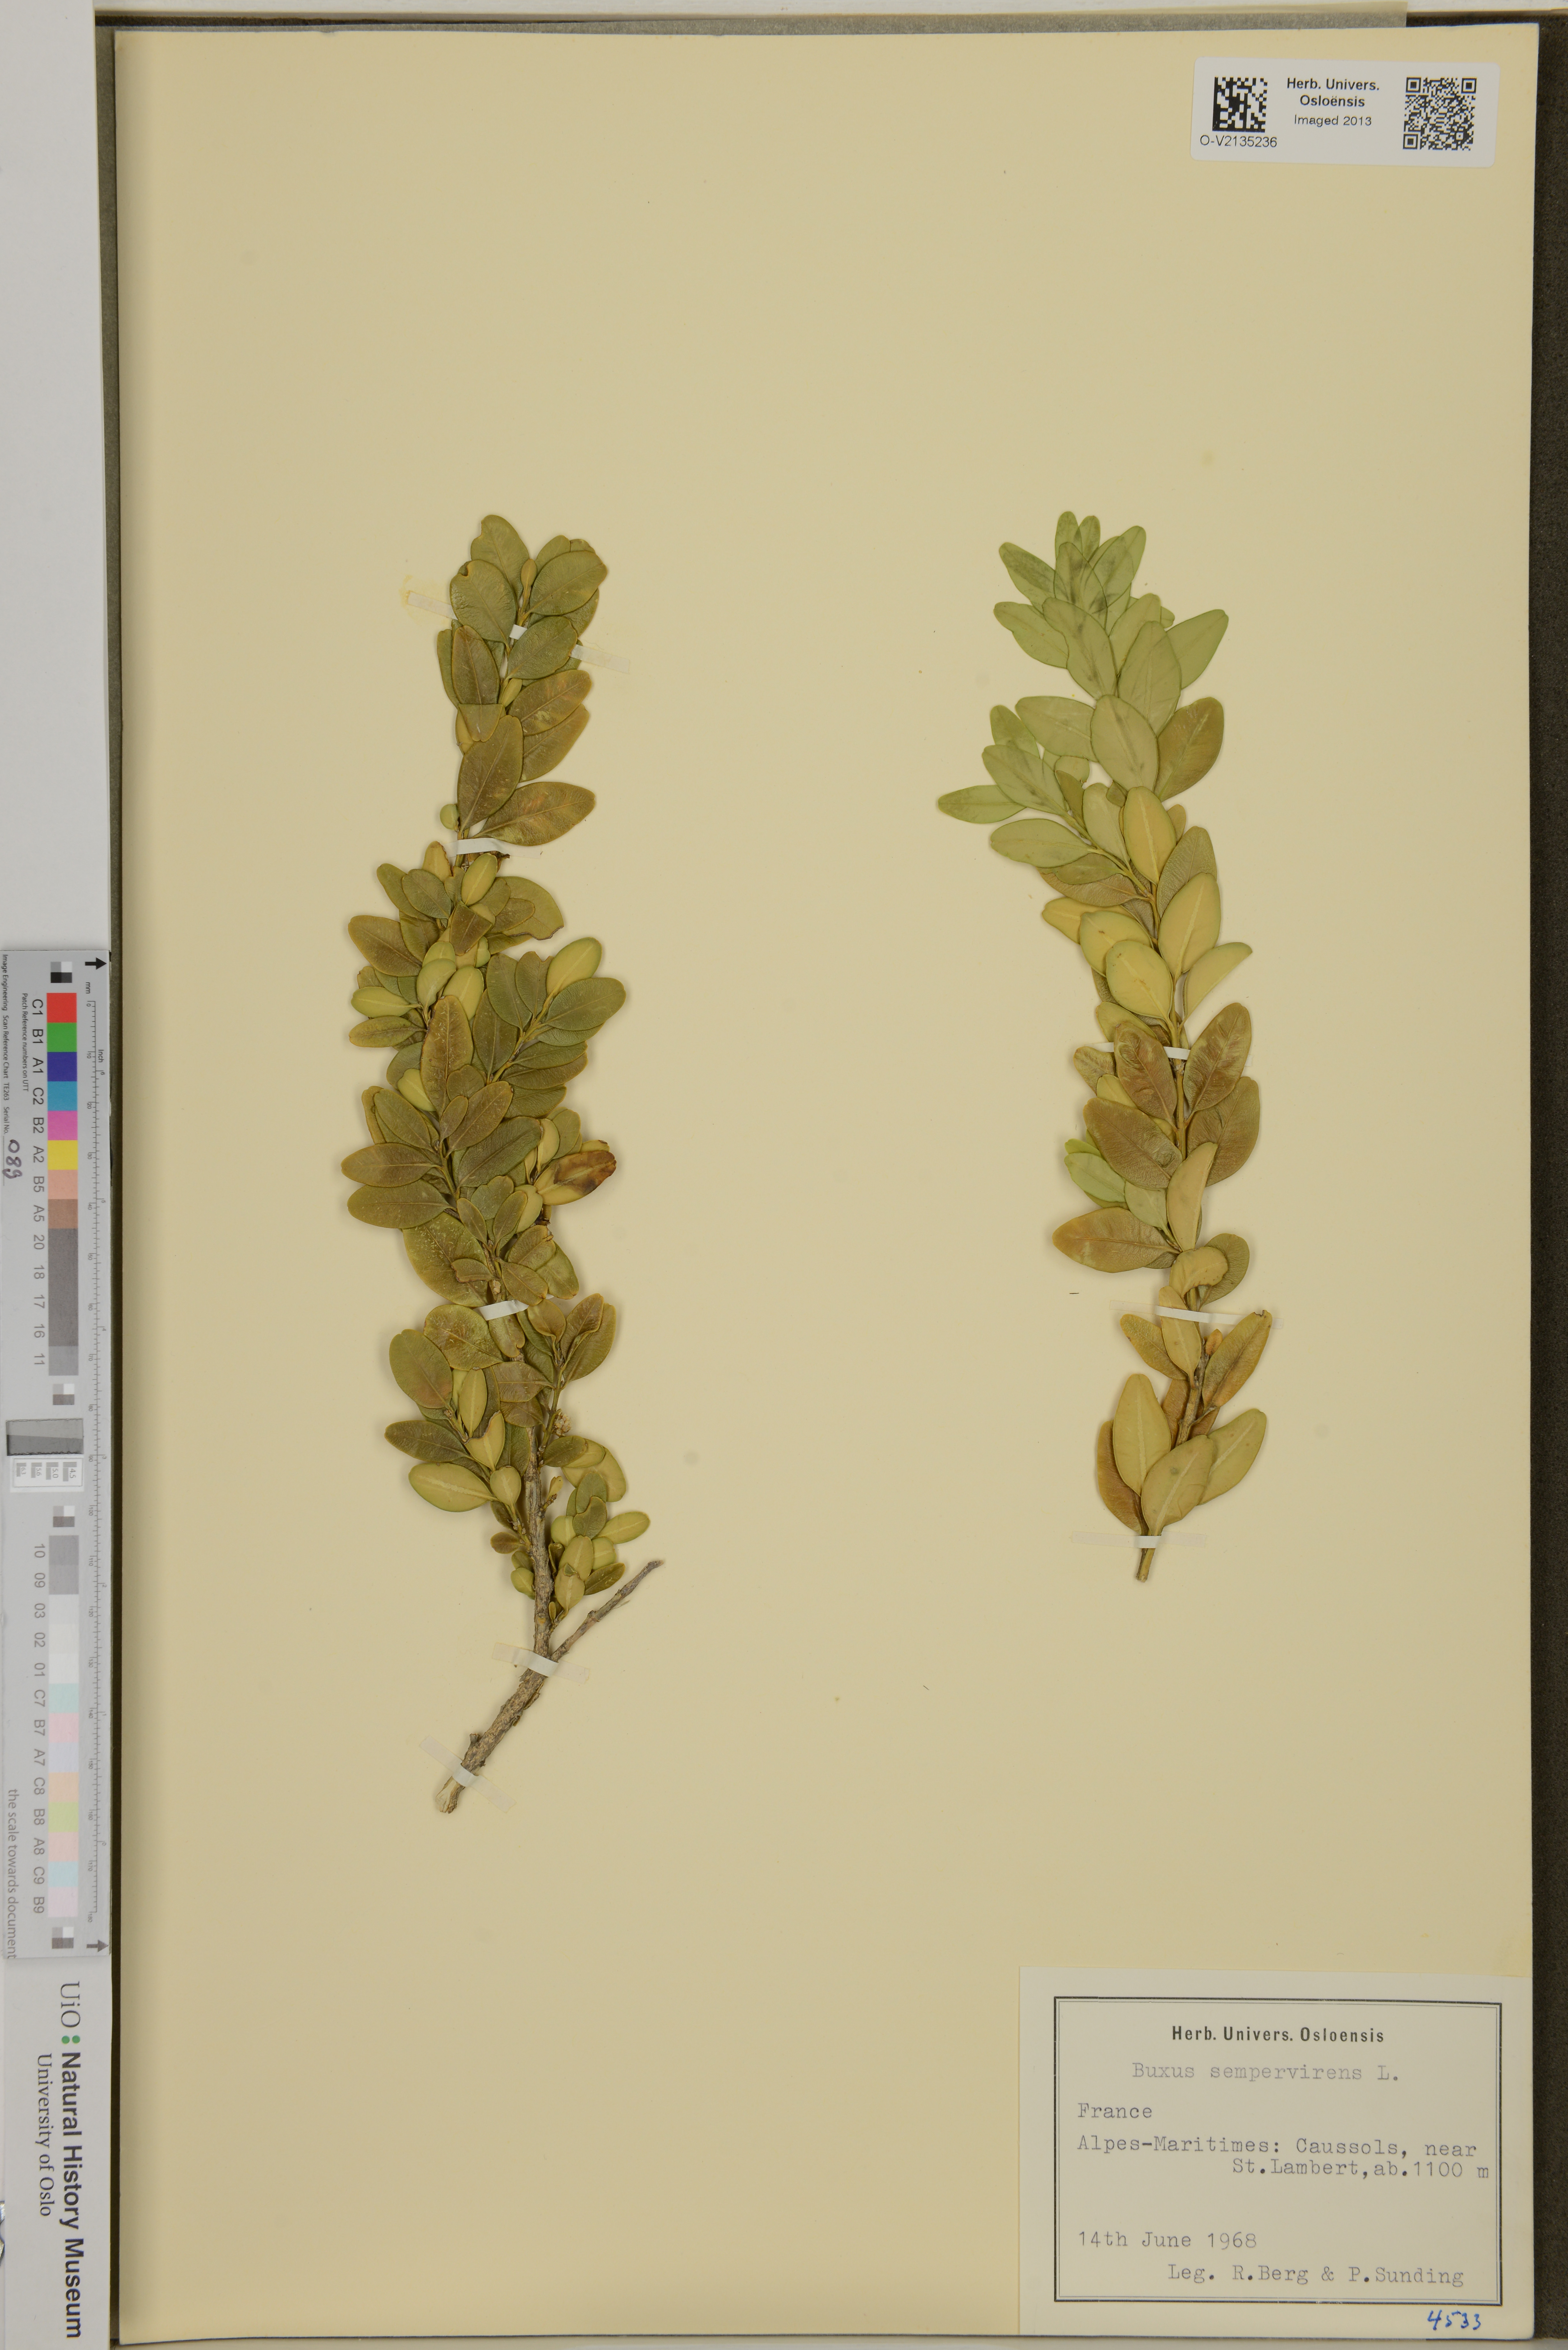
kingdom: Plantae
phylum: Tracheophyta
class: Magnoliopsida
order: Buxales
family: Buxaceae
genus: Buxus
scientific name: Buxus sempervirens
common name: Box
